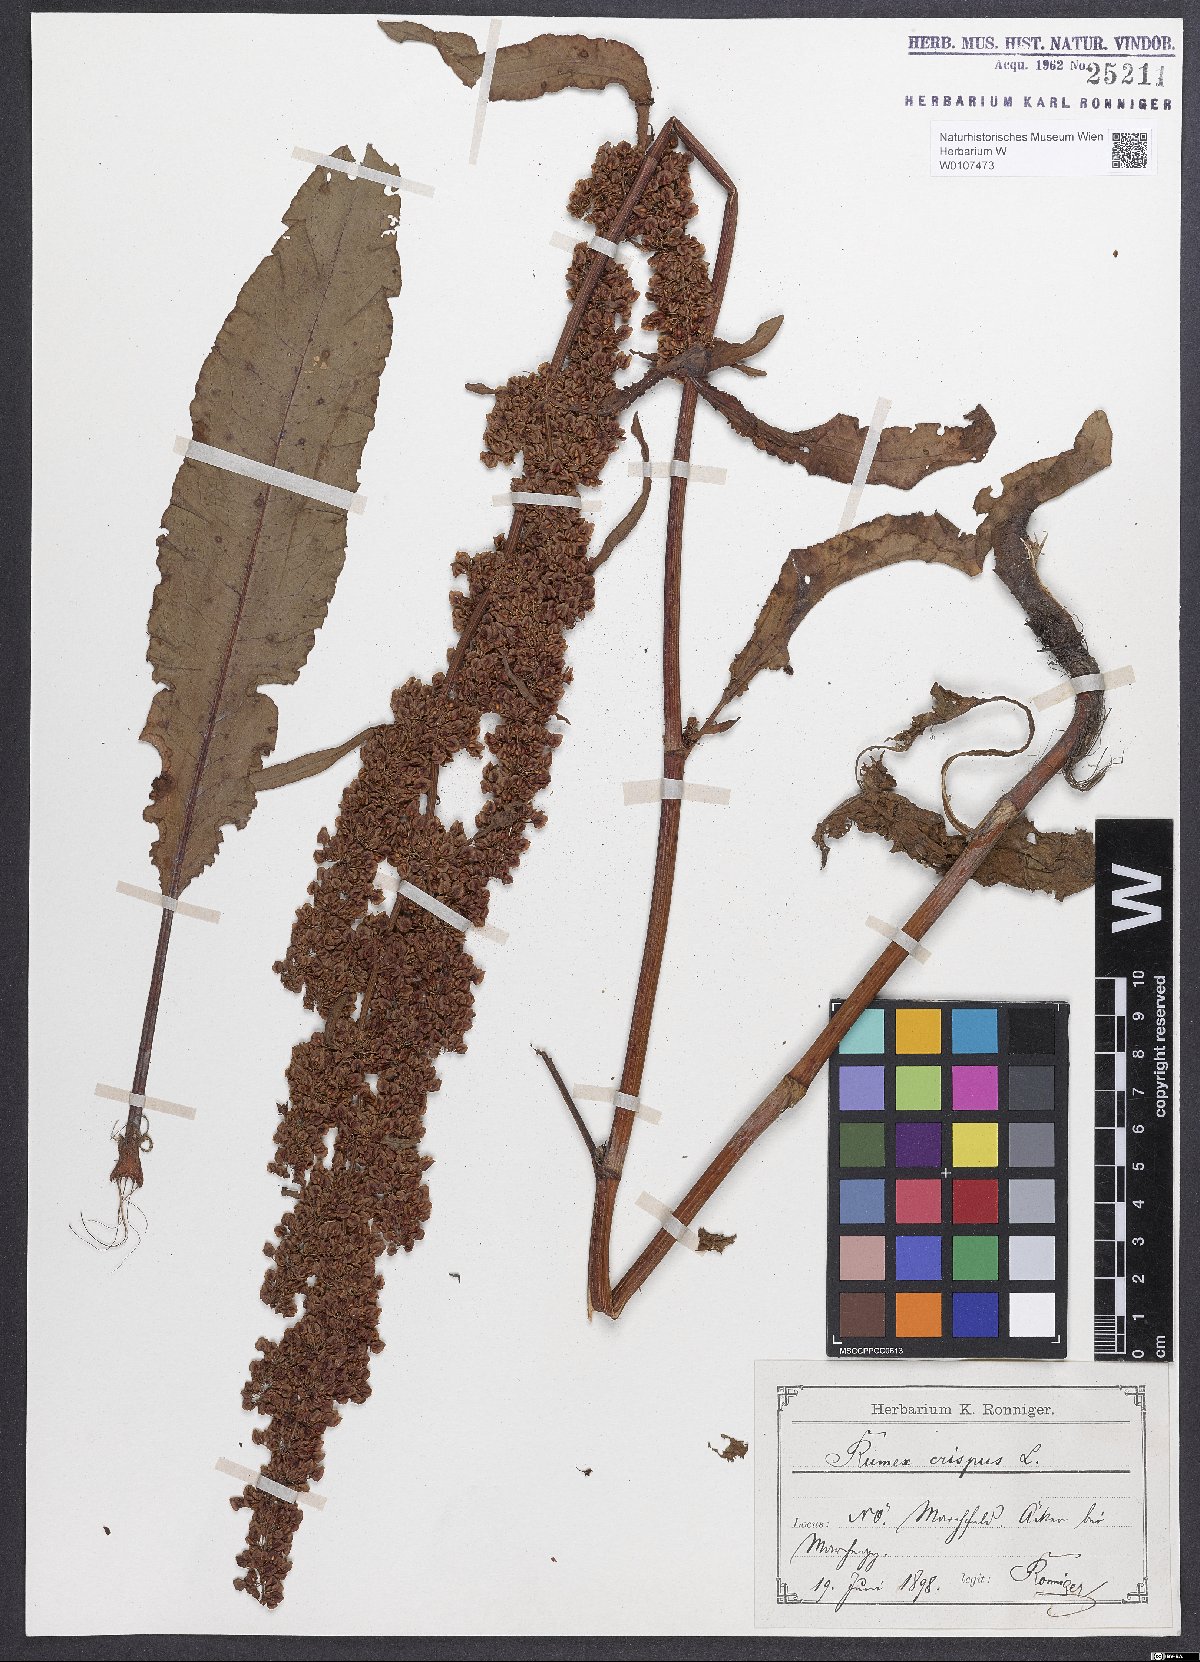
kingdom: Plantae
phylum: Tracheophyta
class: Magnoliopsida
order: Caryophyllales
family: Polygonaceae
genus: Rumex
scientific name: Rumex crispus
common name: Curled dock
